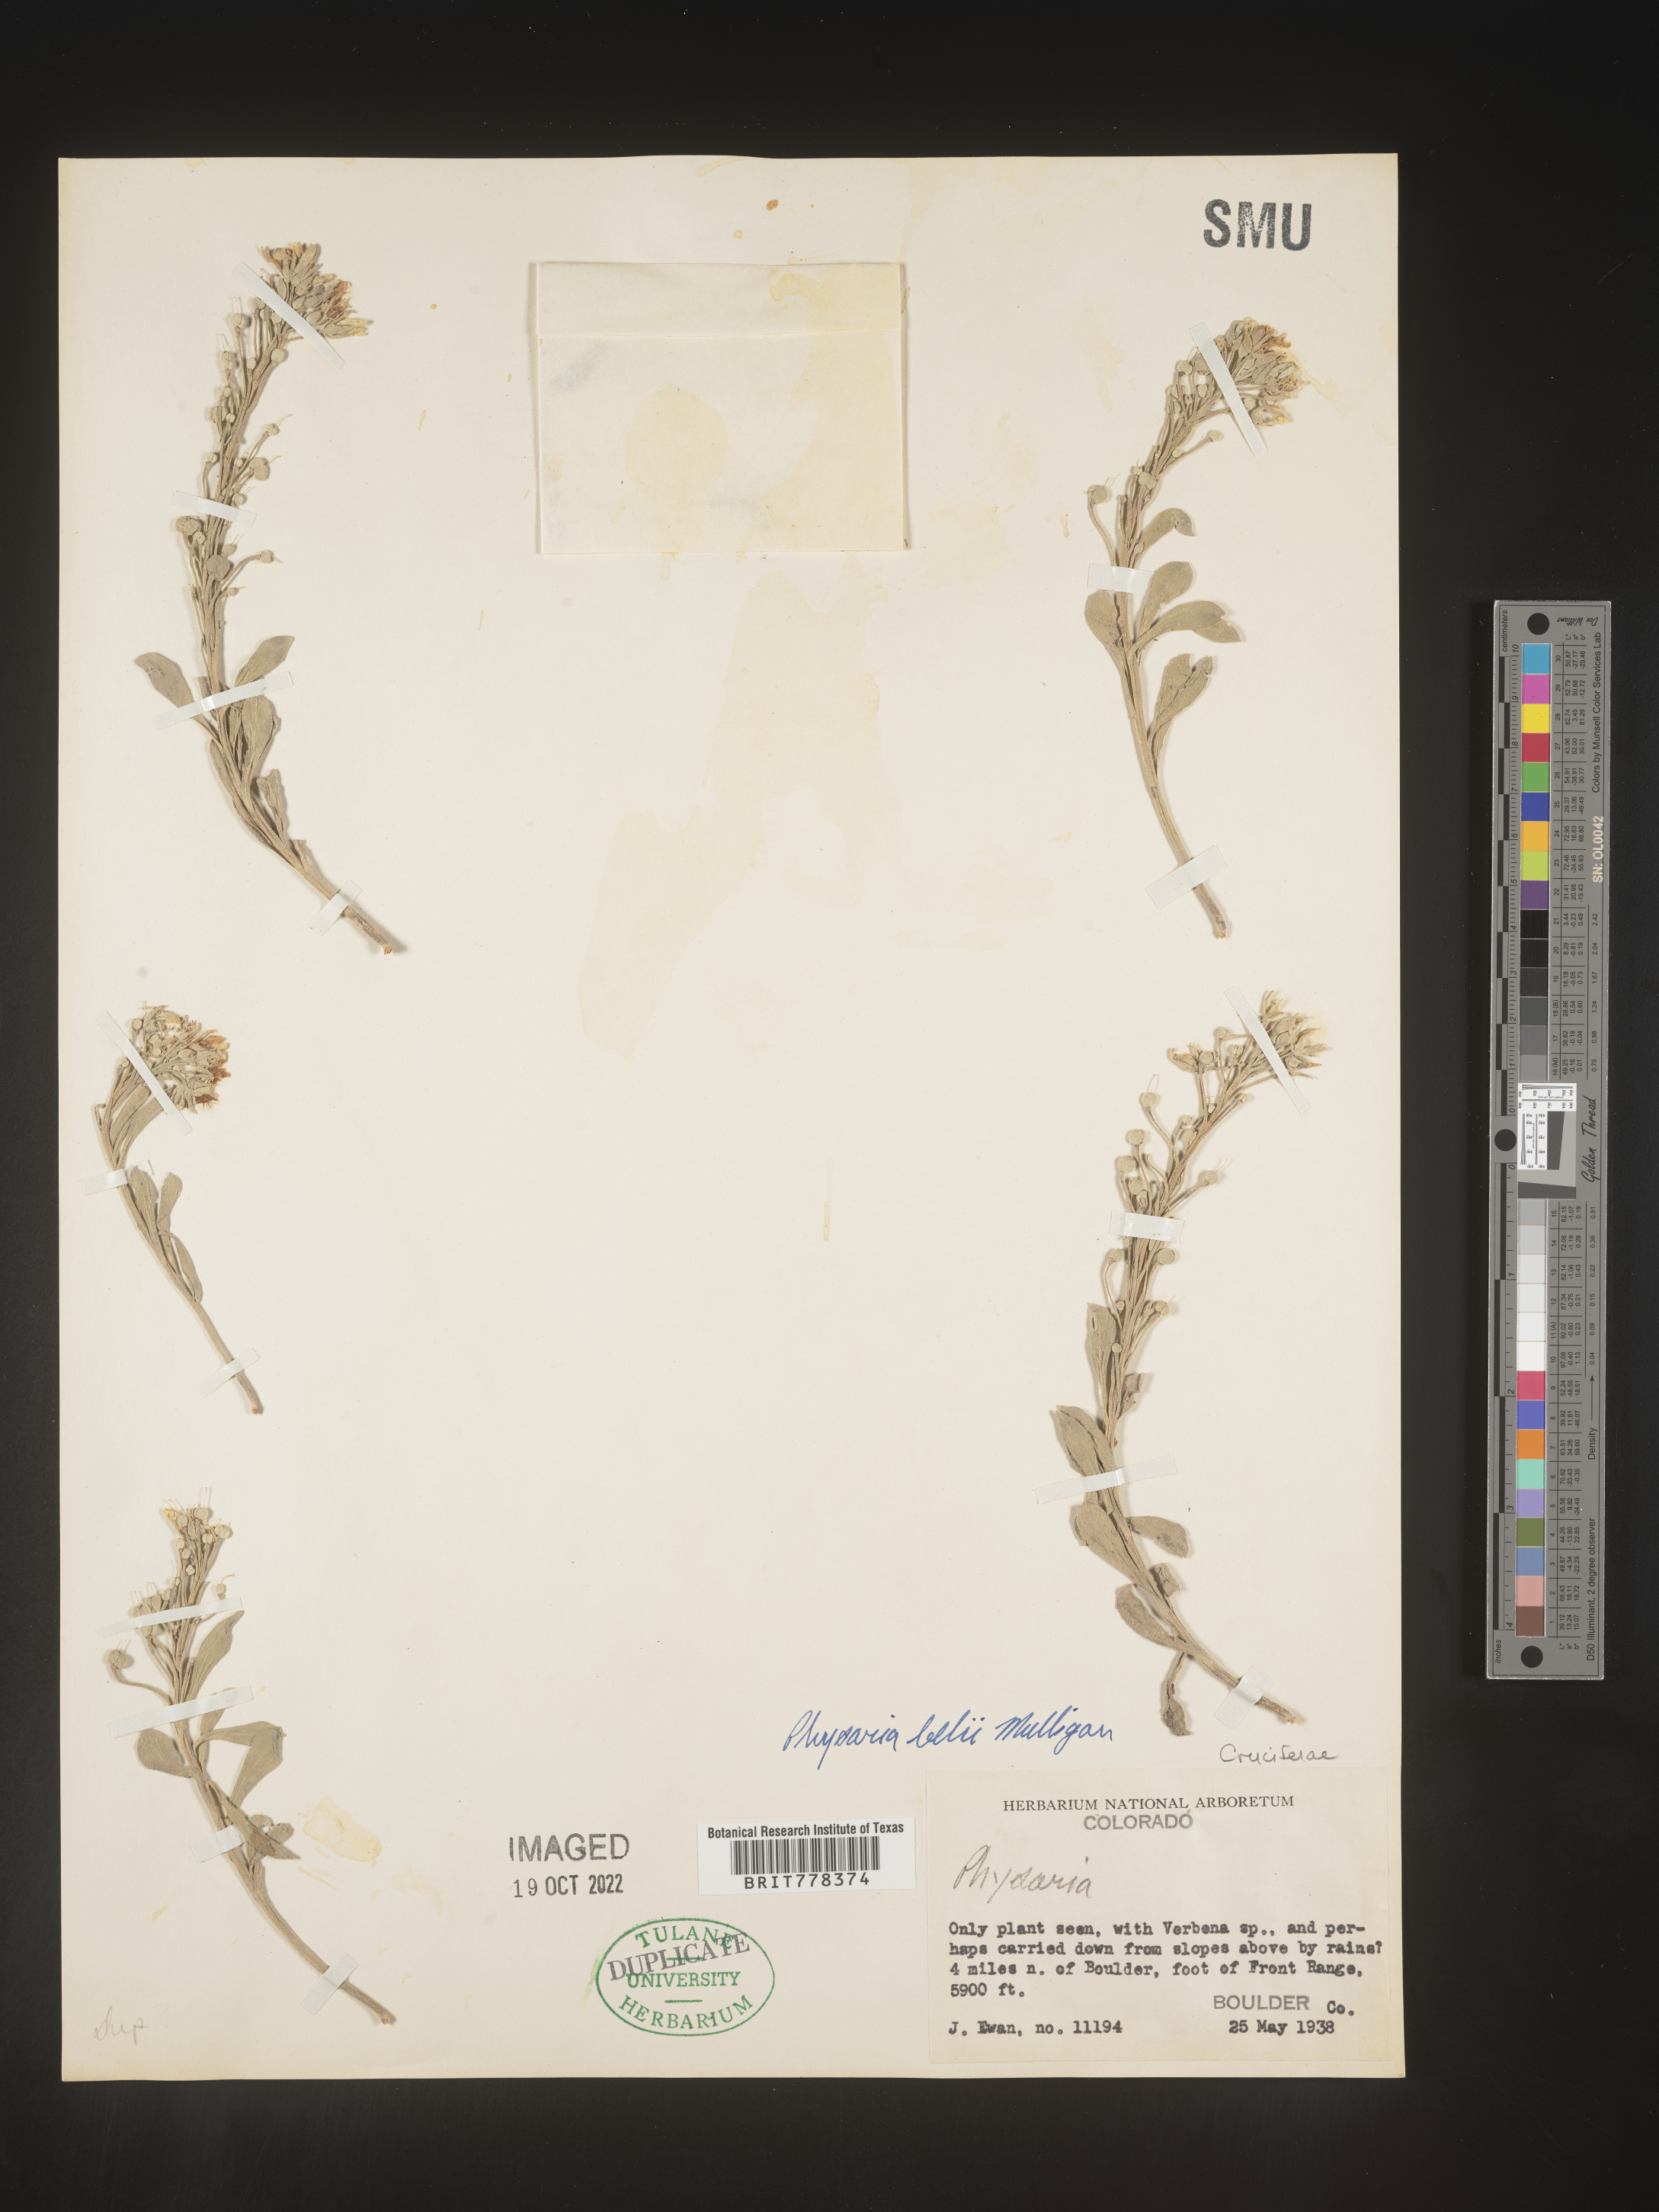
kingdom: Plantae
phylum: Tracheophyta
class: Magnoliopsida
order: Brassicales
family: Brassicaceae
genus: Physaria
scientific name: Physaria
